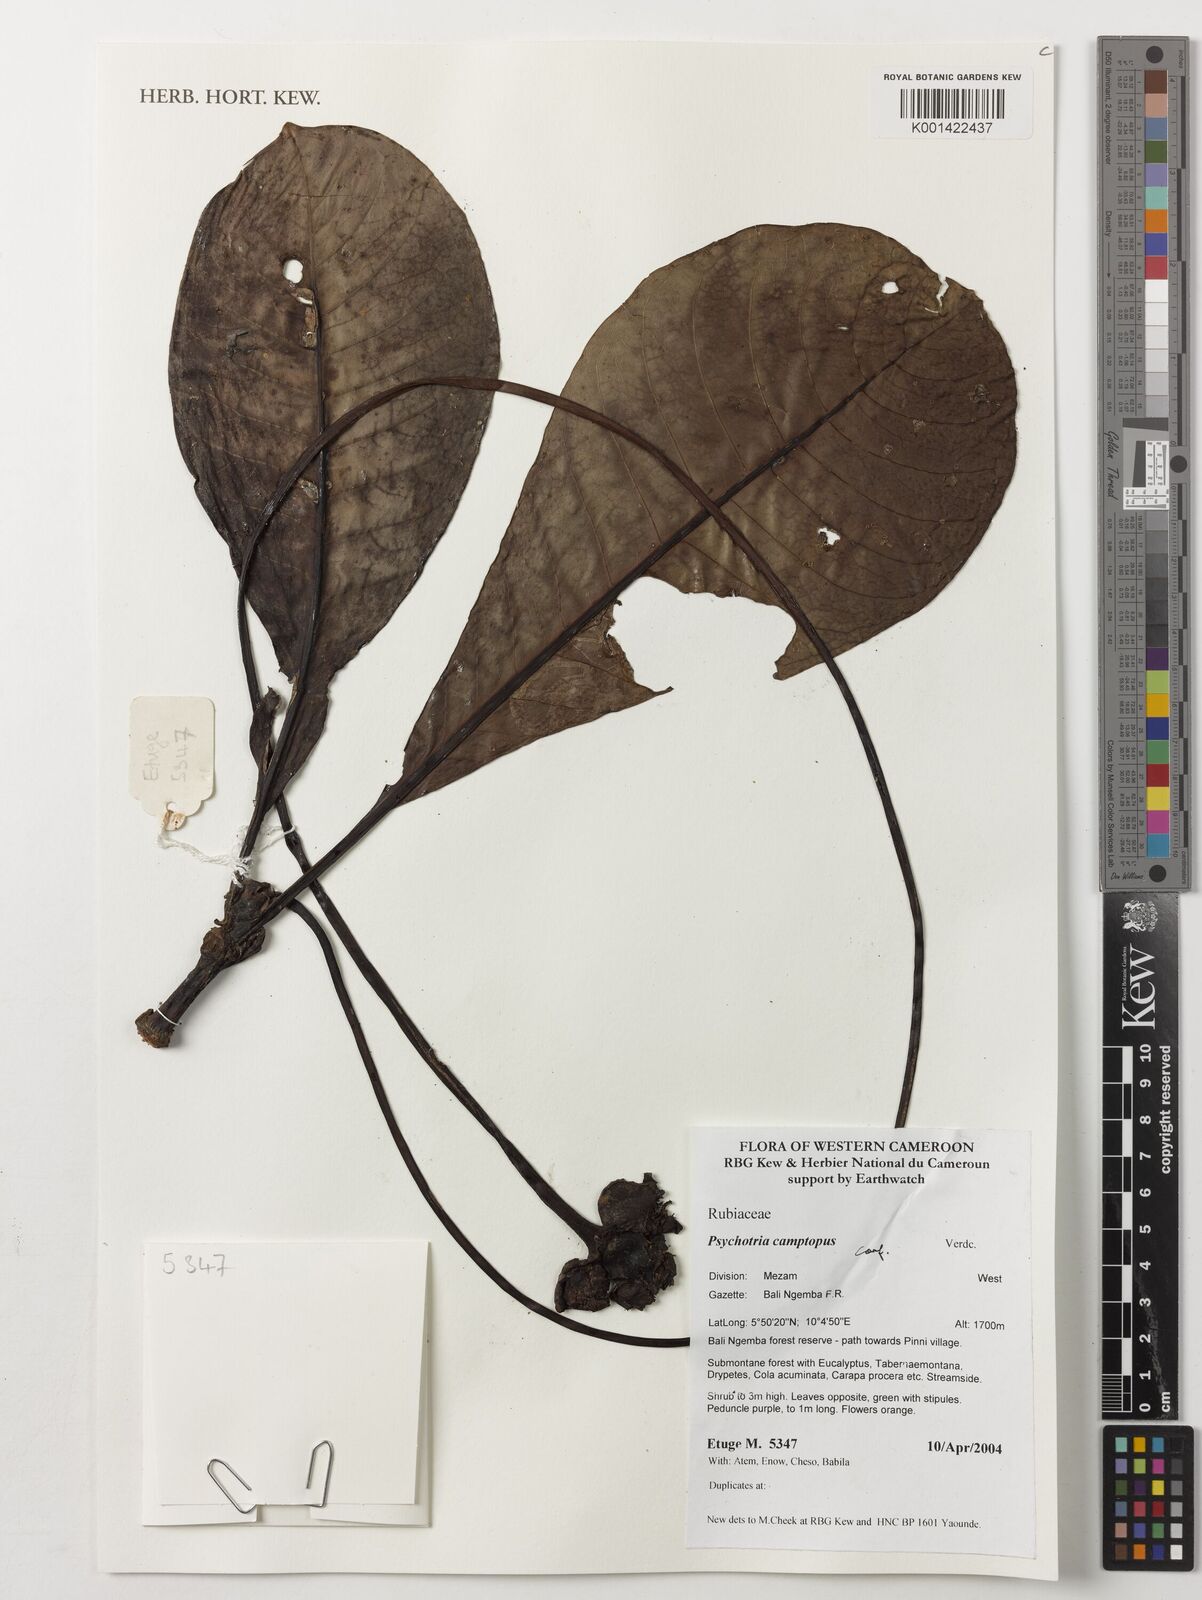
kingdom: Plantae
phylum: Tracheophyta
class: Magnoliopsida
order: Gentianales
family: Rubiaceae
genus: Psychotria
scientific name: Psychotria camptopus
